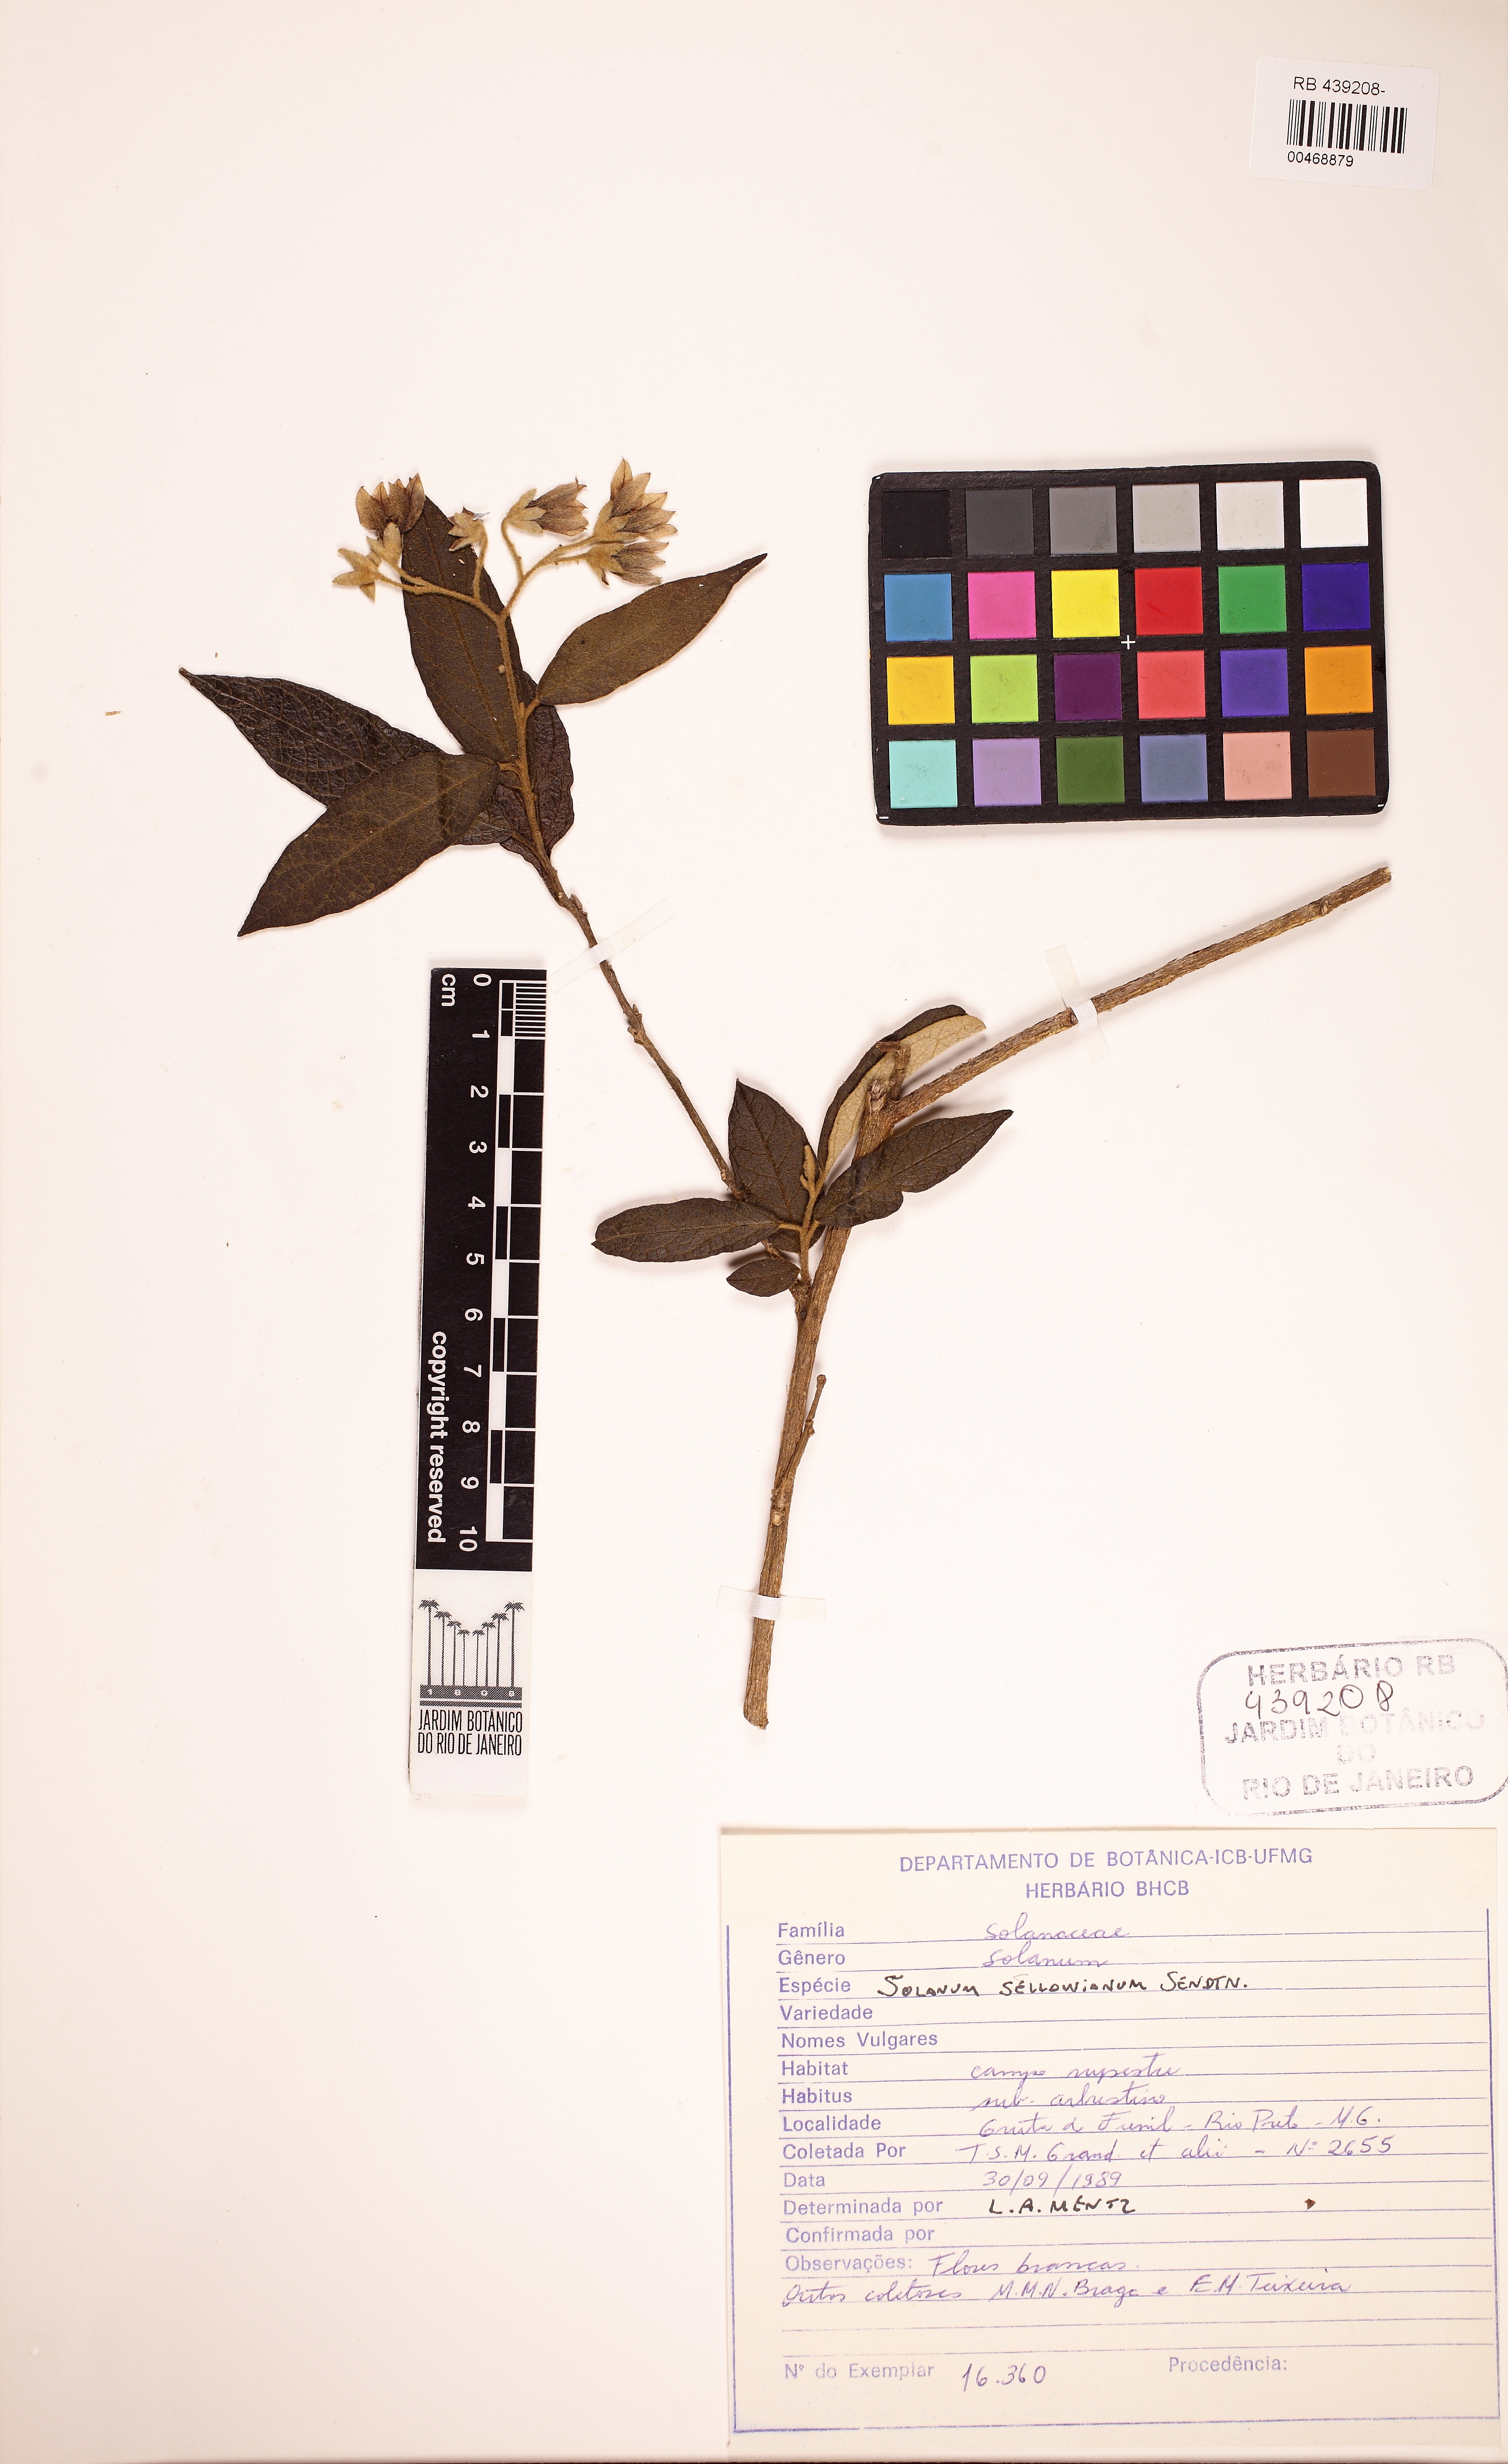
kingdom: Plantae
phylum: Tracheophyta
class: Magnoliopsida
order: Solanales
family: Solanaceae
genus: Solanum
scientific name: Solanum sellowianum
